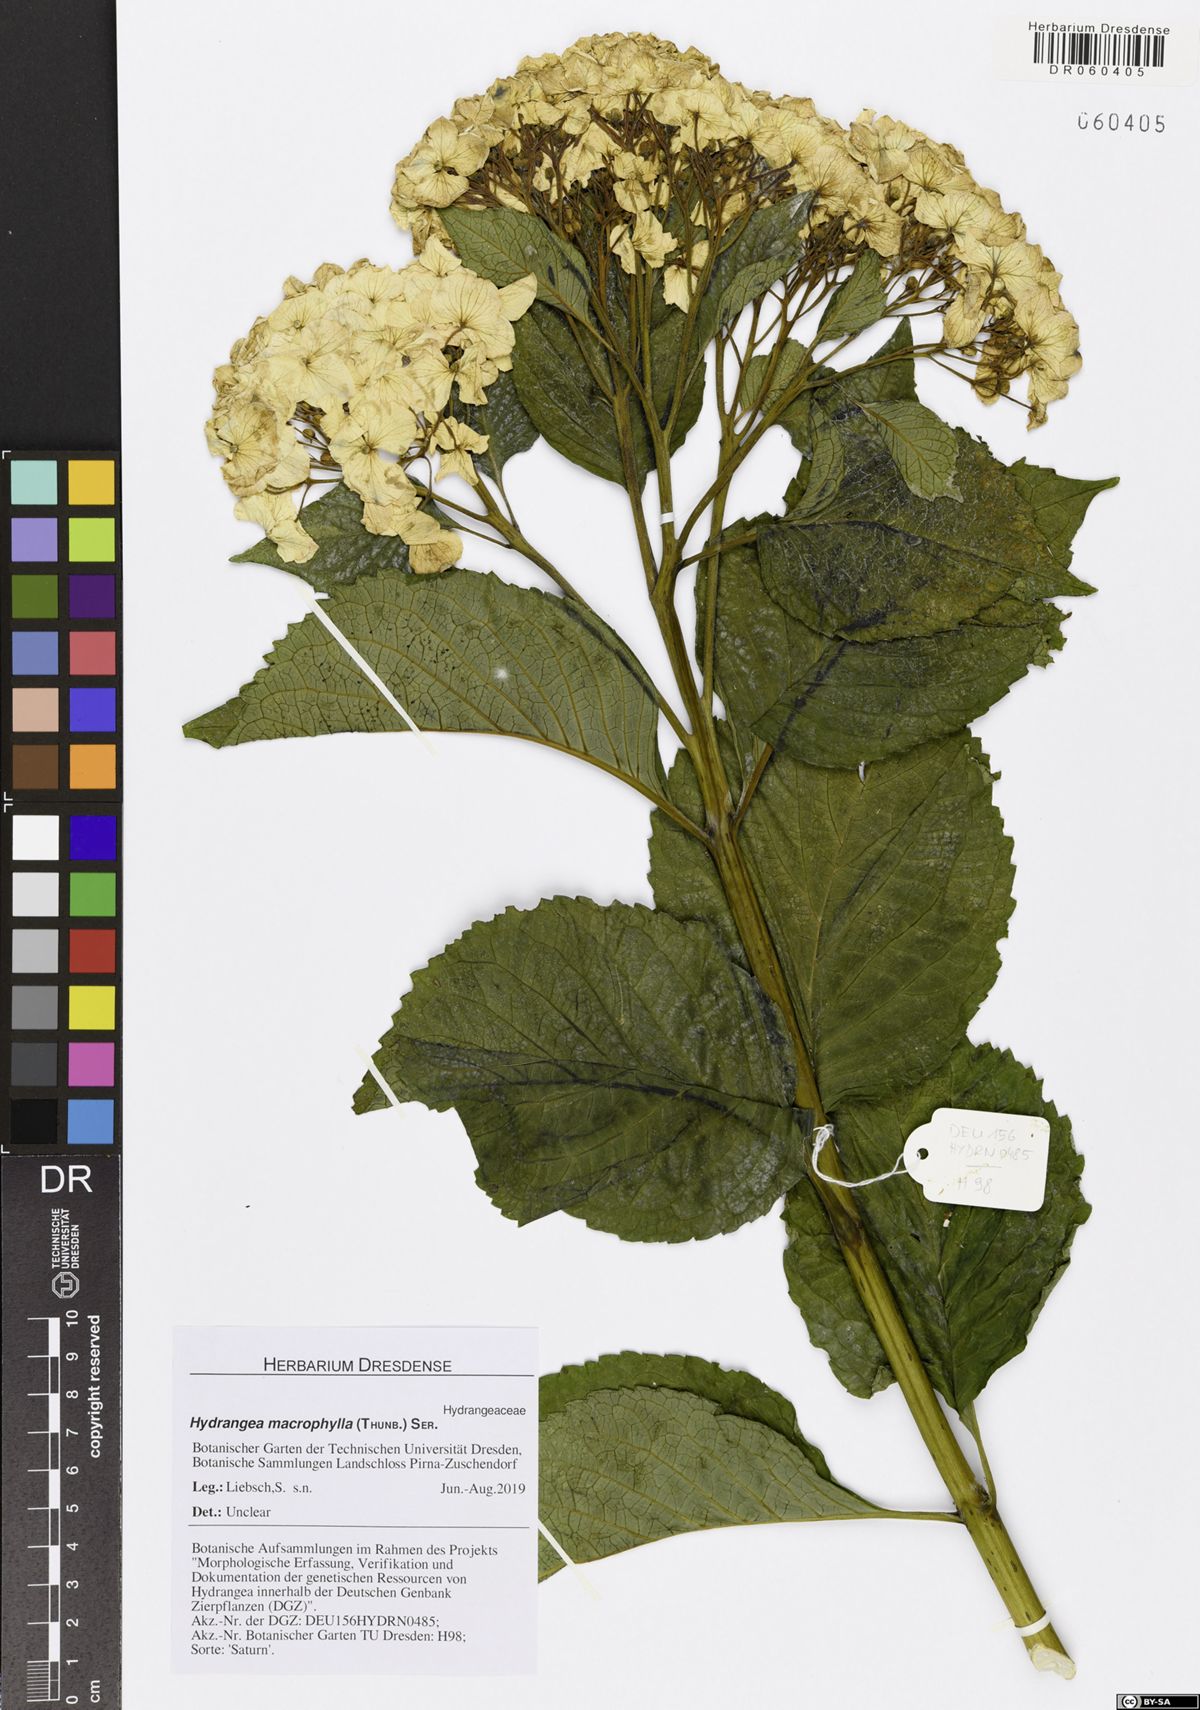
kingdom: Plantae
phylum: Tracheophyta
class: Magnoliopsida
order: Cornales
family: Hydrangeaceae
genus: Hydrangea
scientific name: Hydrangea macrophylla
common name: Hydrangea
